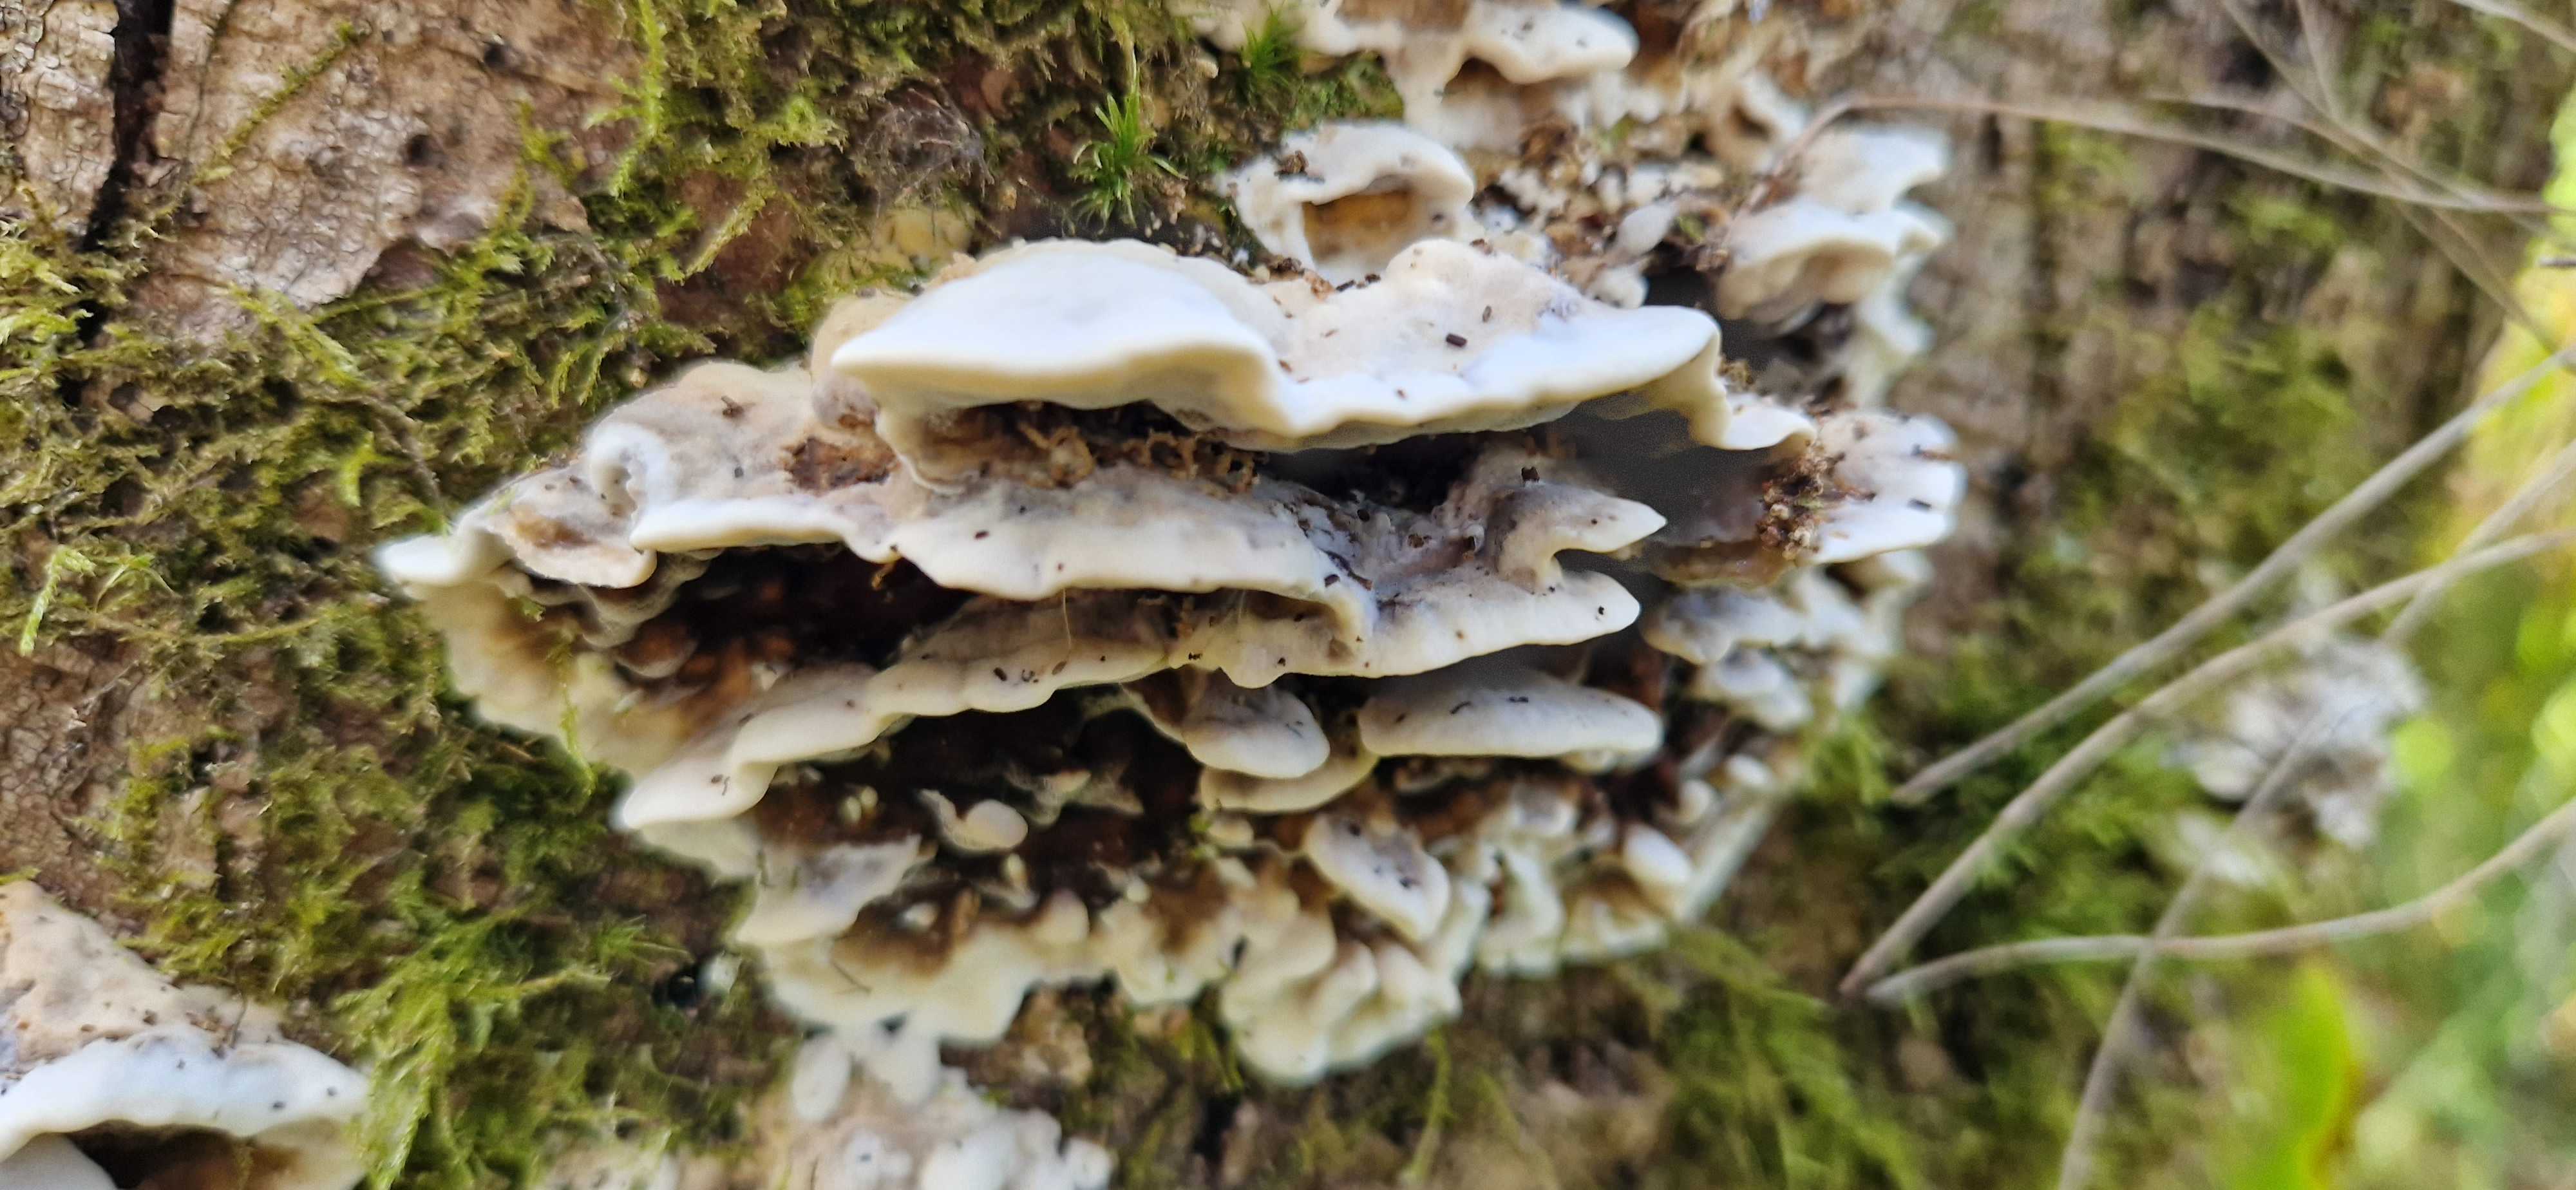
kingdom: Fungi
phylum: Basidiomycota
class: Agaricomycetes
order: Polyporales
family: Phanerochaetaceae
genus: Bjerkandera
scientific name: Bjerkandera adusta
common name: sveden sodporesvamp
